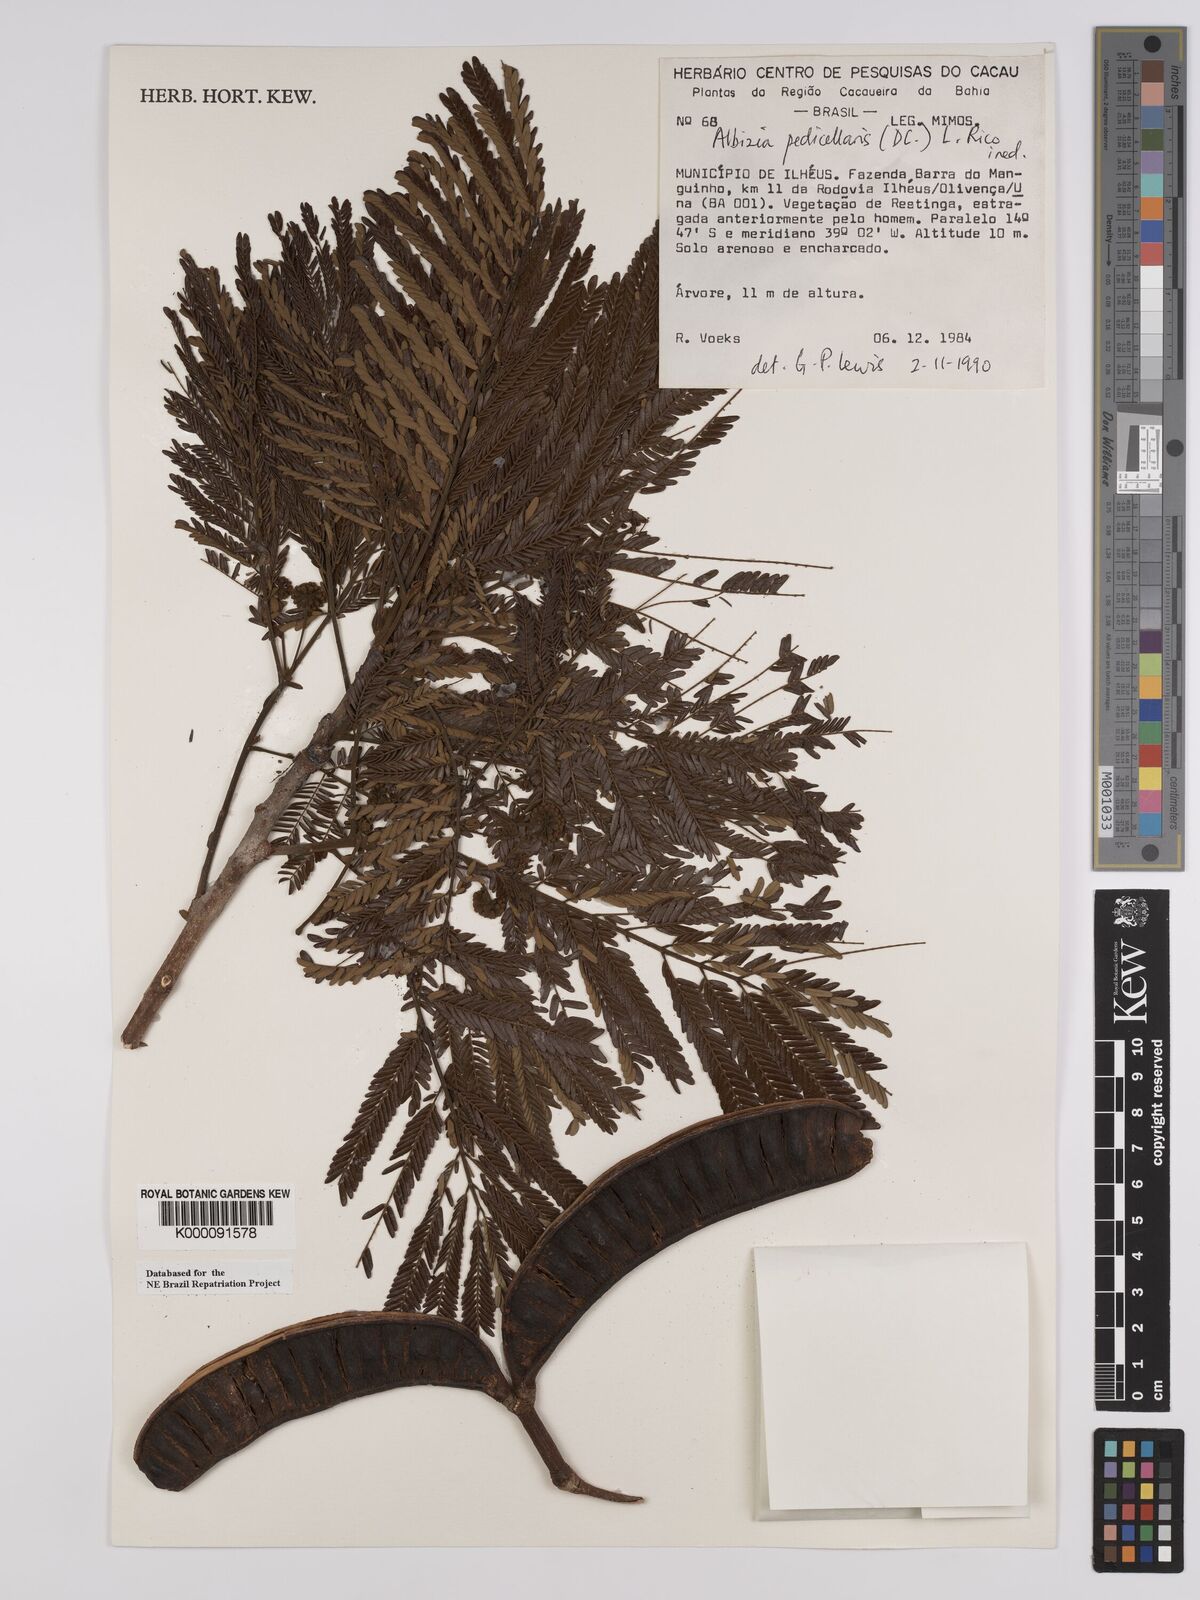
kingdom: Plantae
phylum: Tracheophyta
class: Magnoliopsida
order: Fabales
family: Fabaceae
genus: Balizia
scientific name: Balizia pedicellaris
